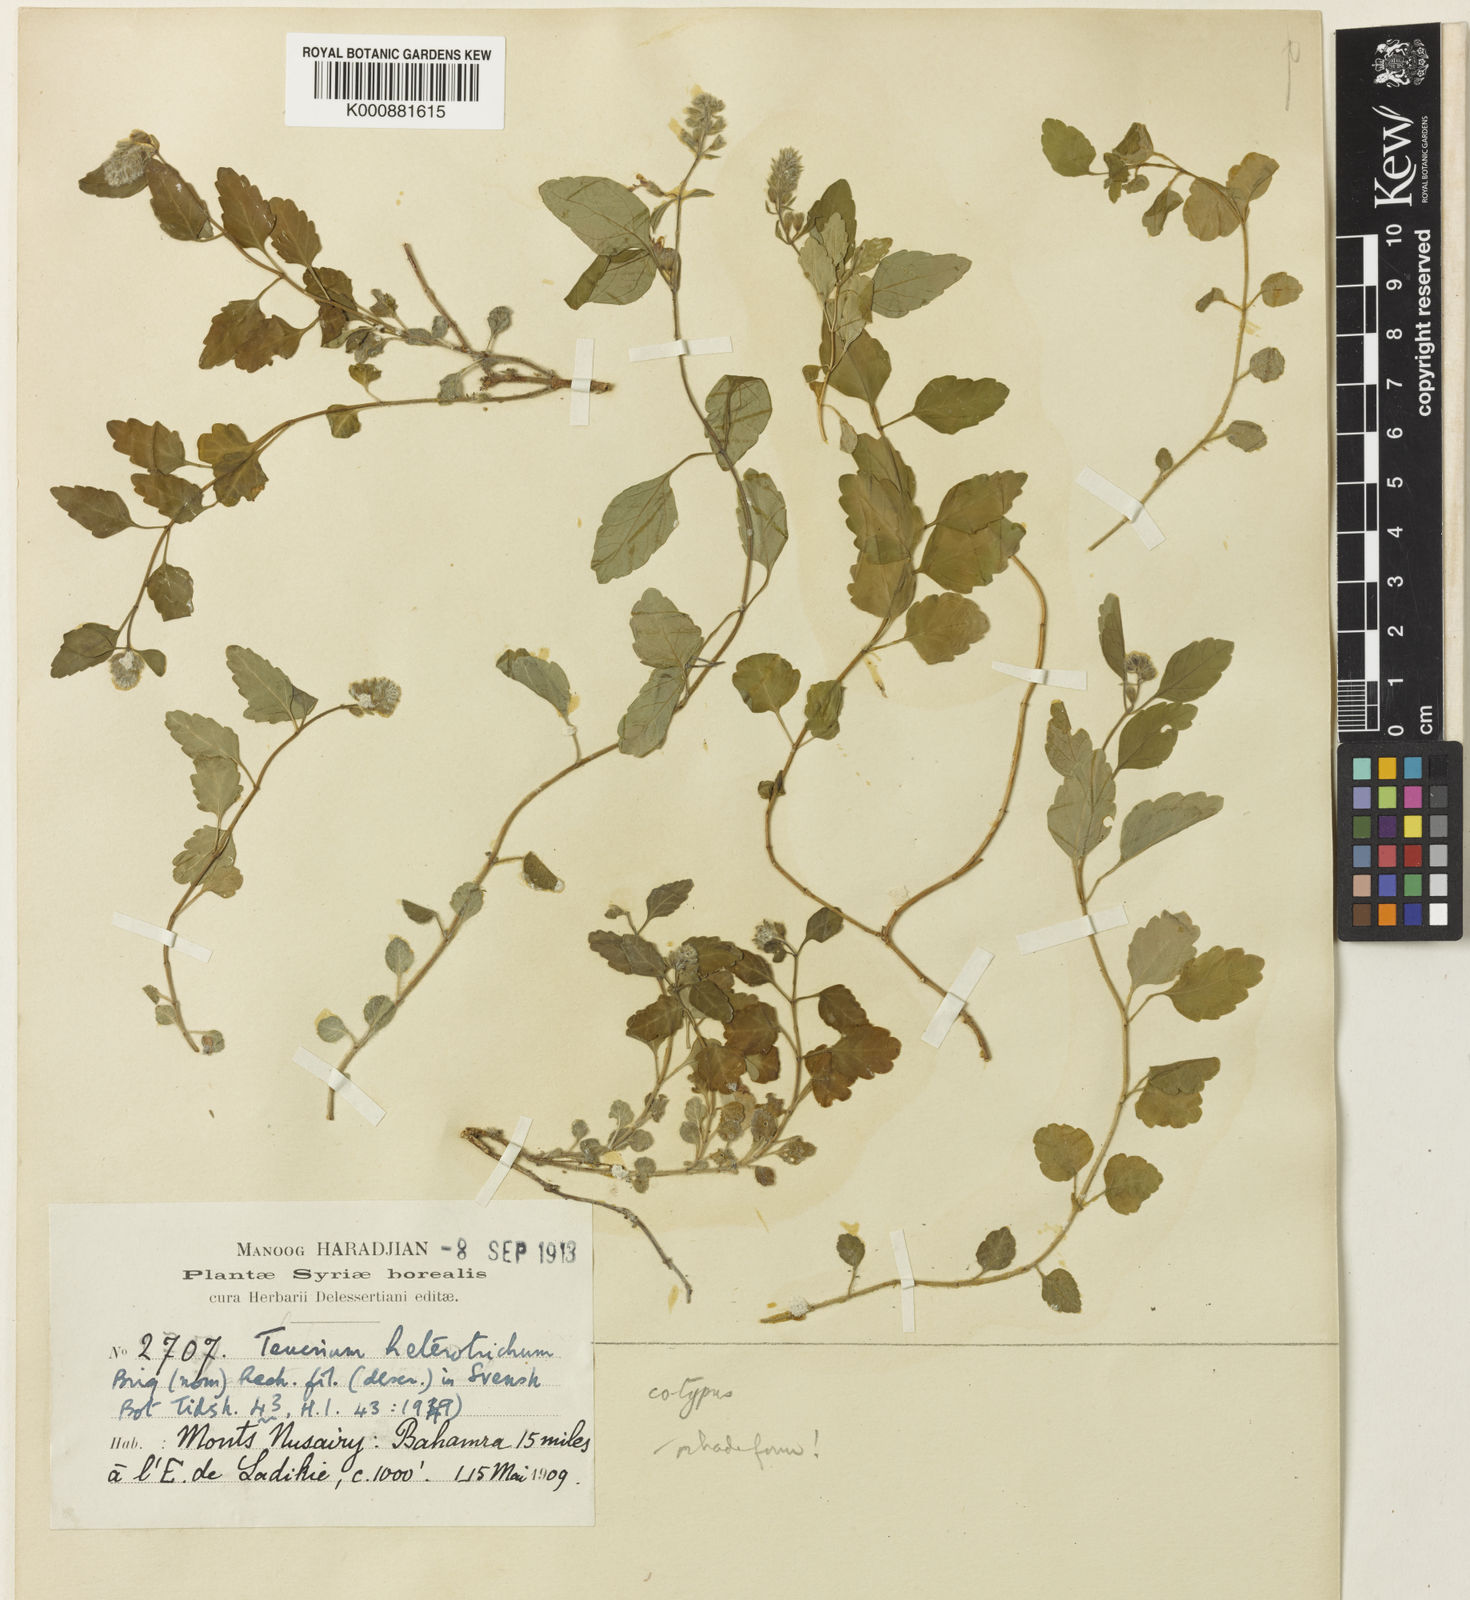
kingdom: Plantae
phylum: Tracheophyta
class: Magnoliopsida
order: Lamiales
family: Lamiaceae
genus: Teucrium
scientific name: Teucrium heterotrichum
